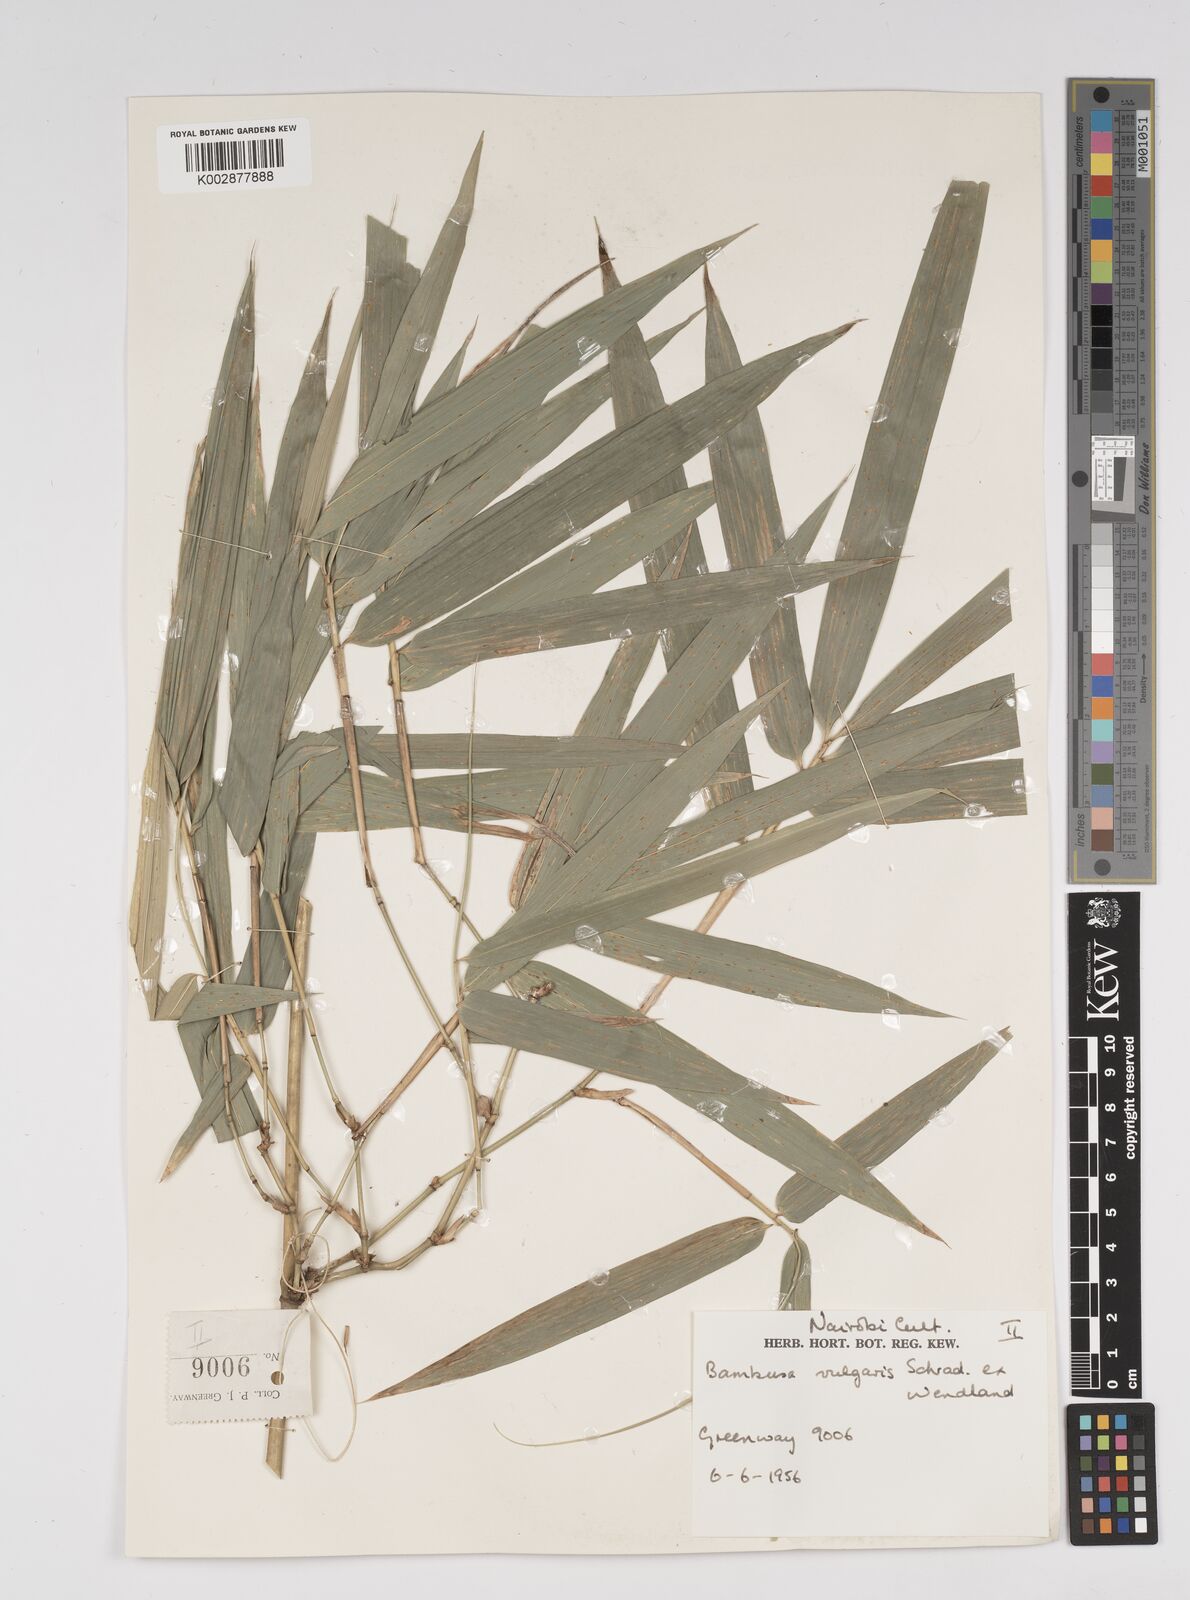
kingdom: Plantae
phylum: Tracheophyta
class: Liliopsida
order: Poales
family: Poaceae
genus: Bambusa
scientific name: Bambusa balcooa
